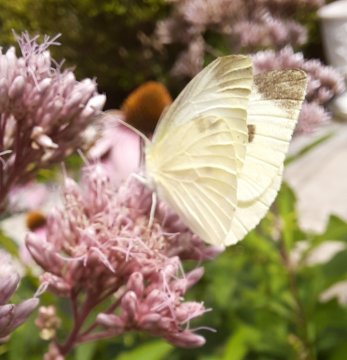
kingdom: Animalia
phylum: Arthropoda
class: Insecta
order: Lepidoptera
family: Pieridae
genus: Pieris
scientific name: Pieris rapae
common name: Cabbage White
